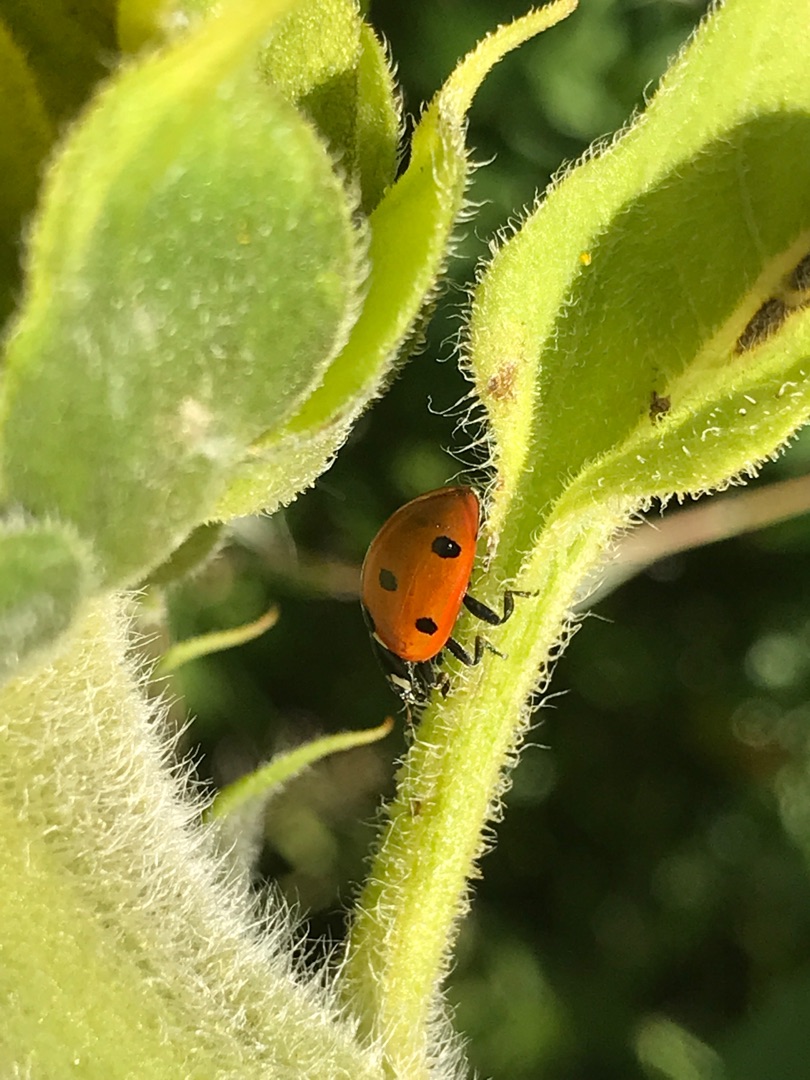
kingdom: Animalia
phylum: Arthropoda
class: Insecta
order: Coleoptera
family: Coccinellidae
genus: Coccinella
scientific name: Coccinella septempunctata
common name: Syvplettet mariehøne
